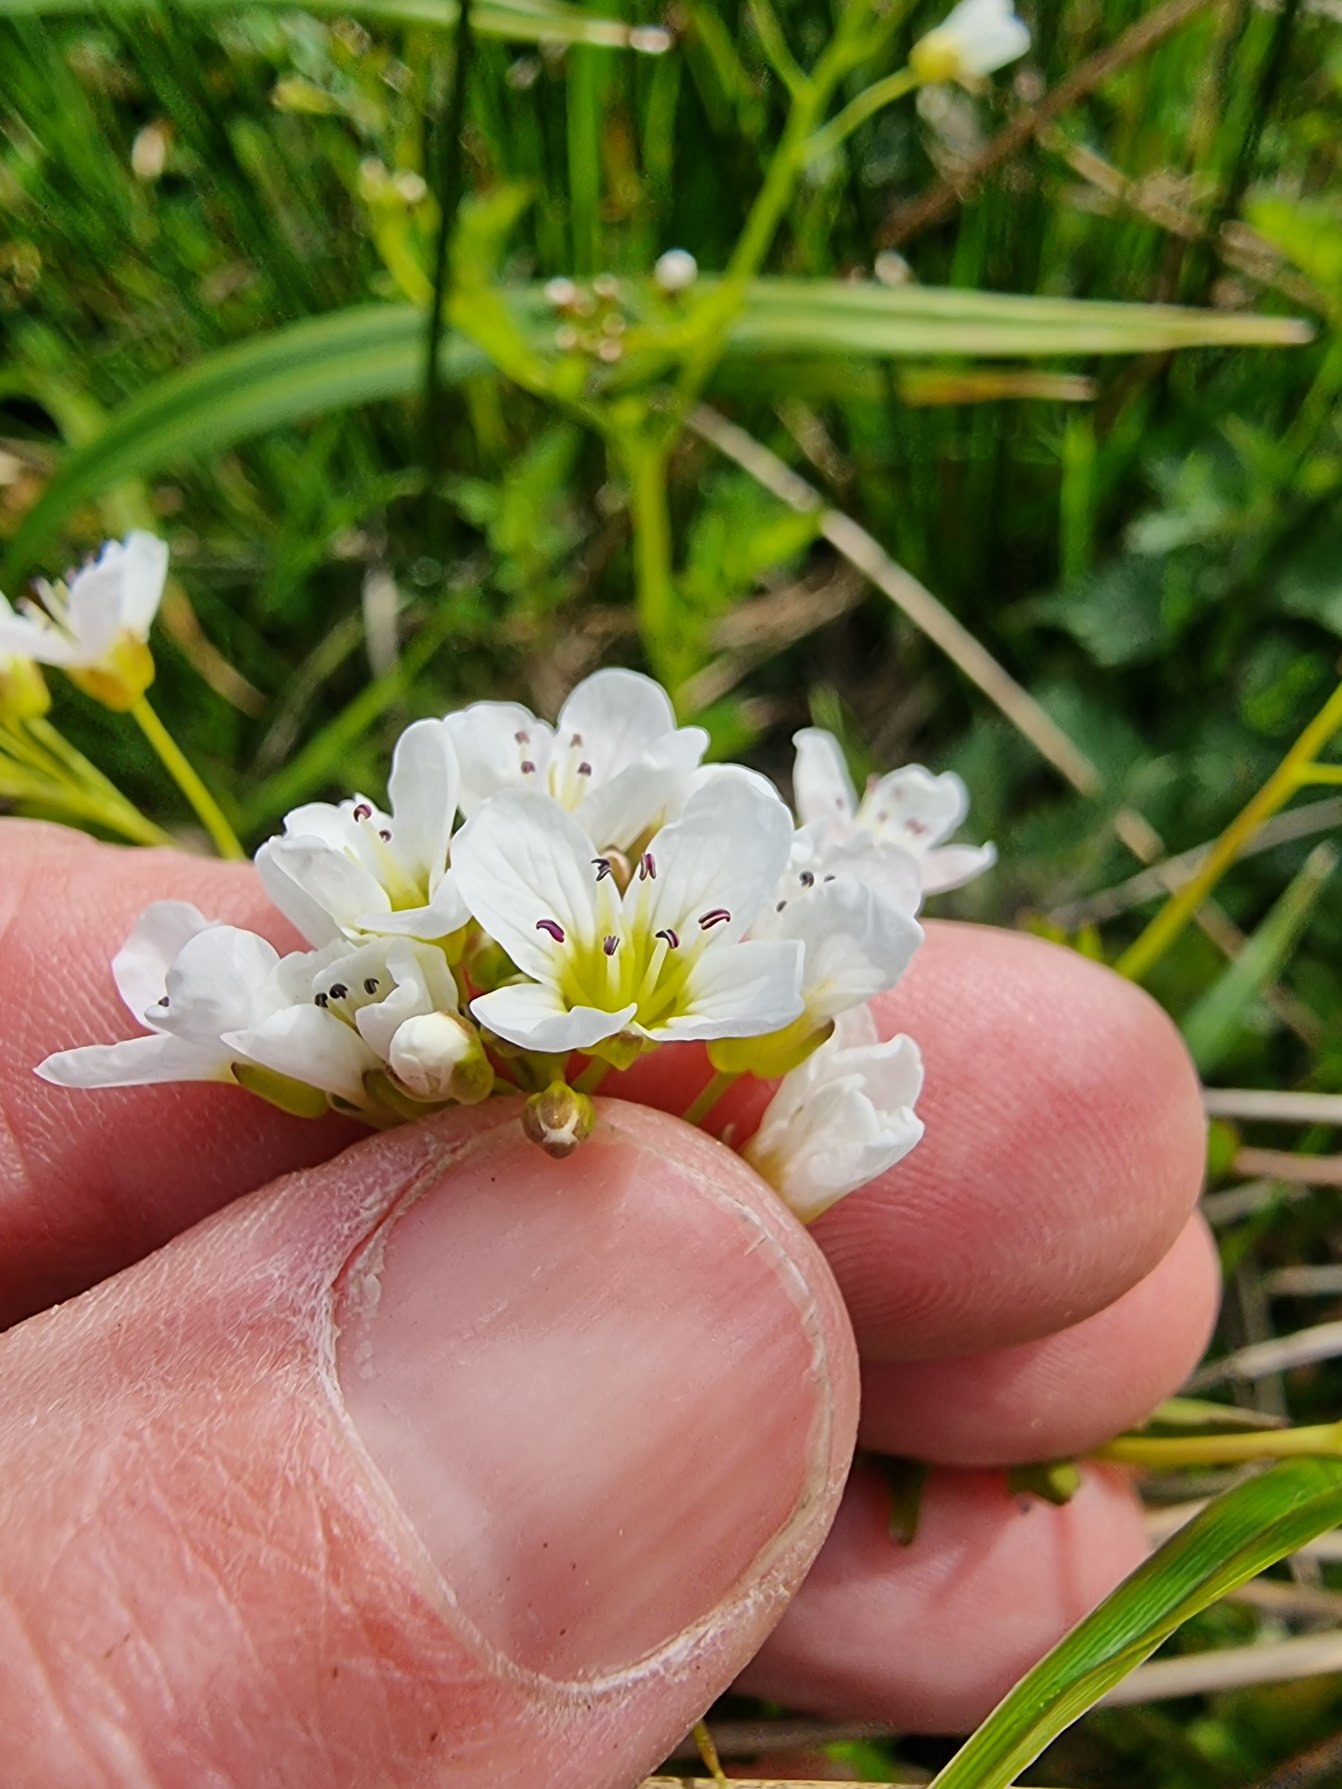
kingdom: Plantae
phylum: Tracheophyta
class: Magnoliopsida
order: Brassicales
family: Brassicaceae
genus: Cardamine
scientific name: Cardamine amara
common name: Vandkarse
